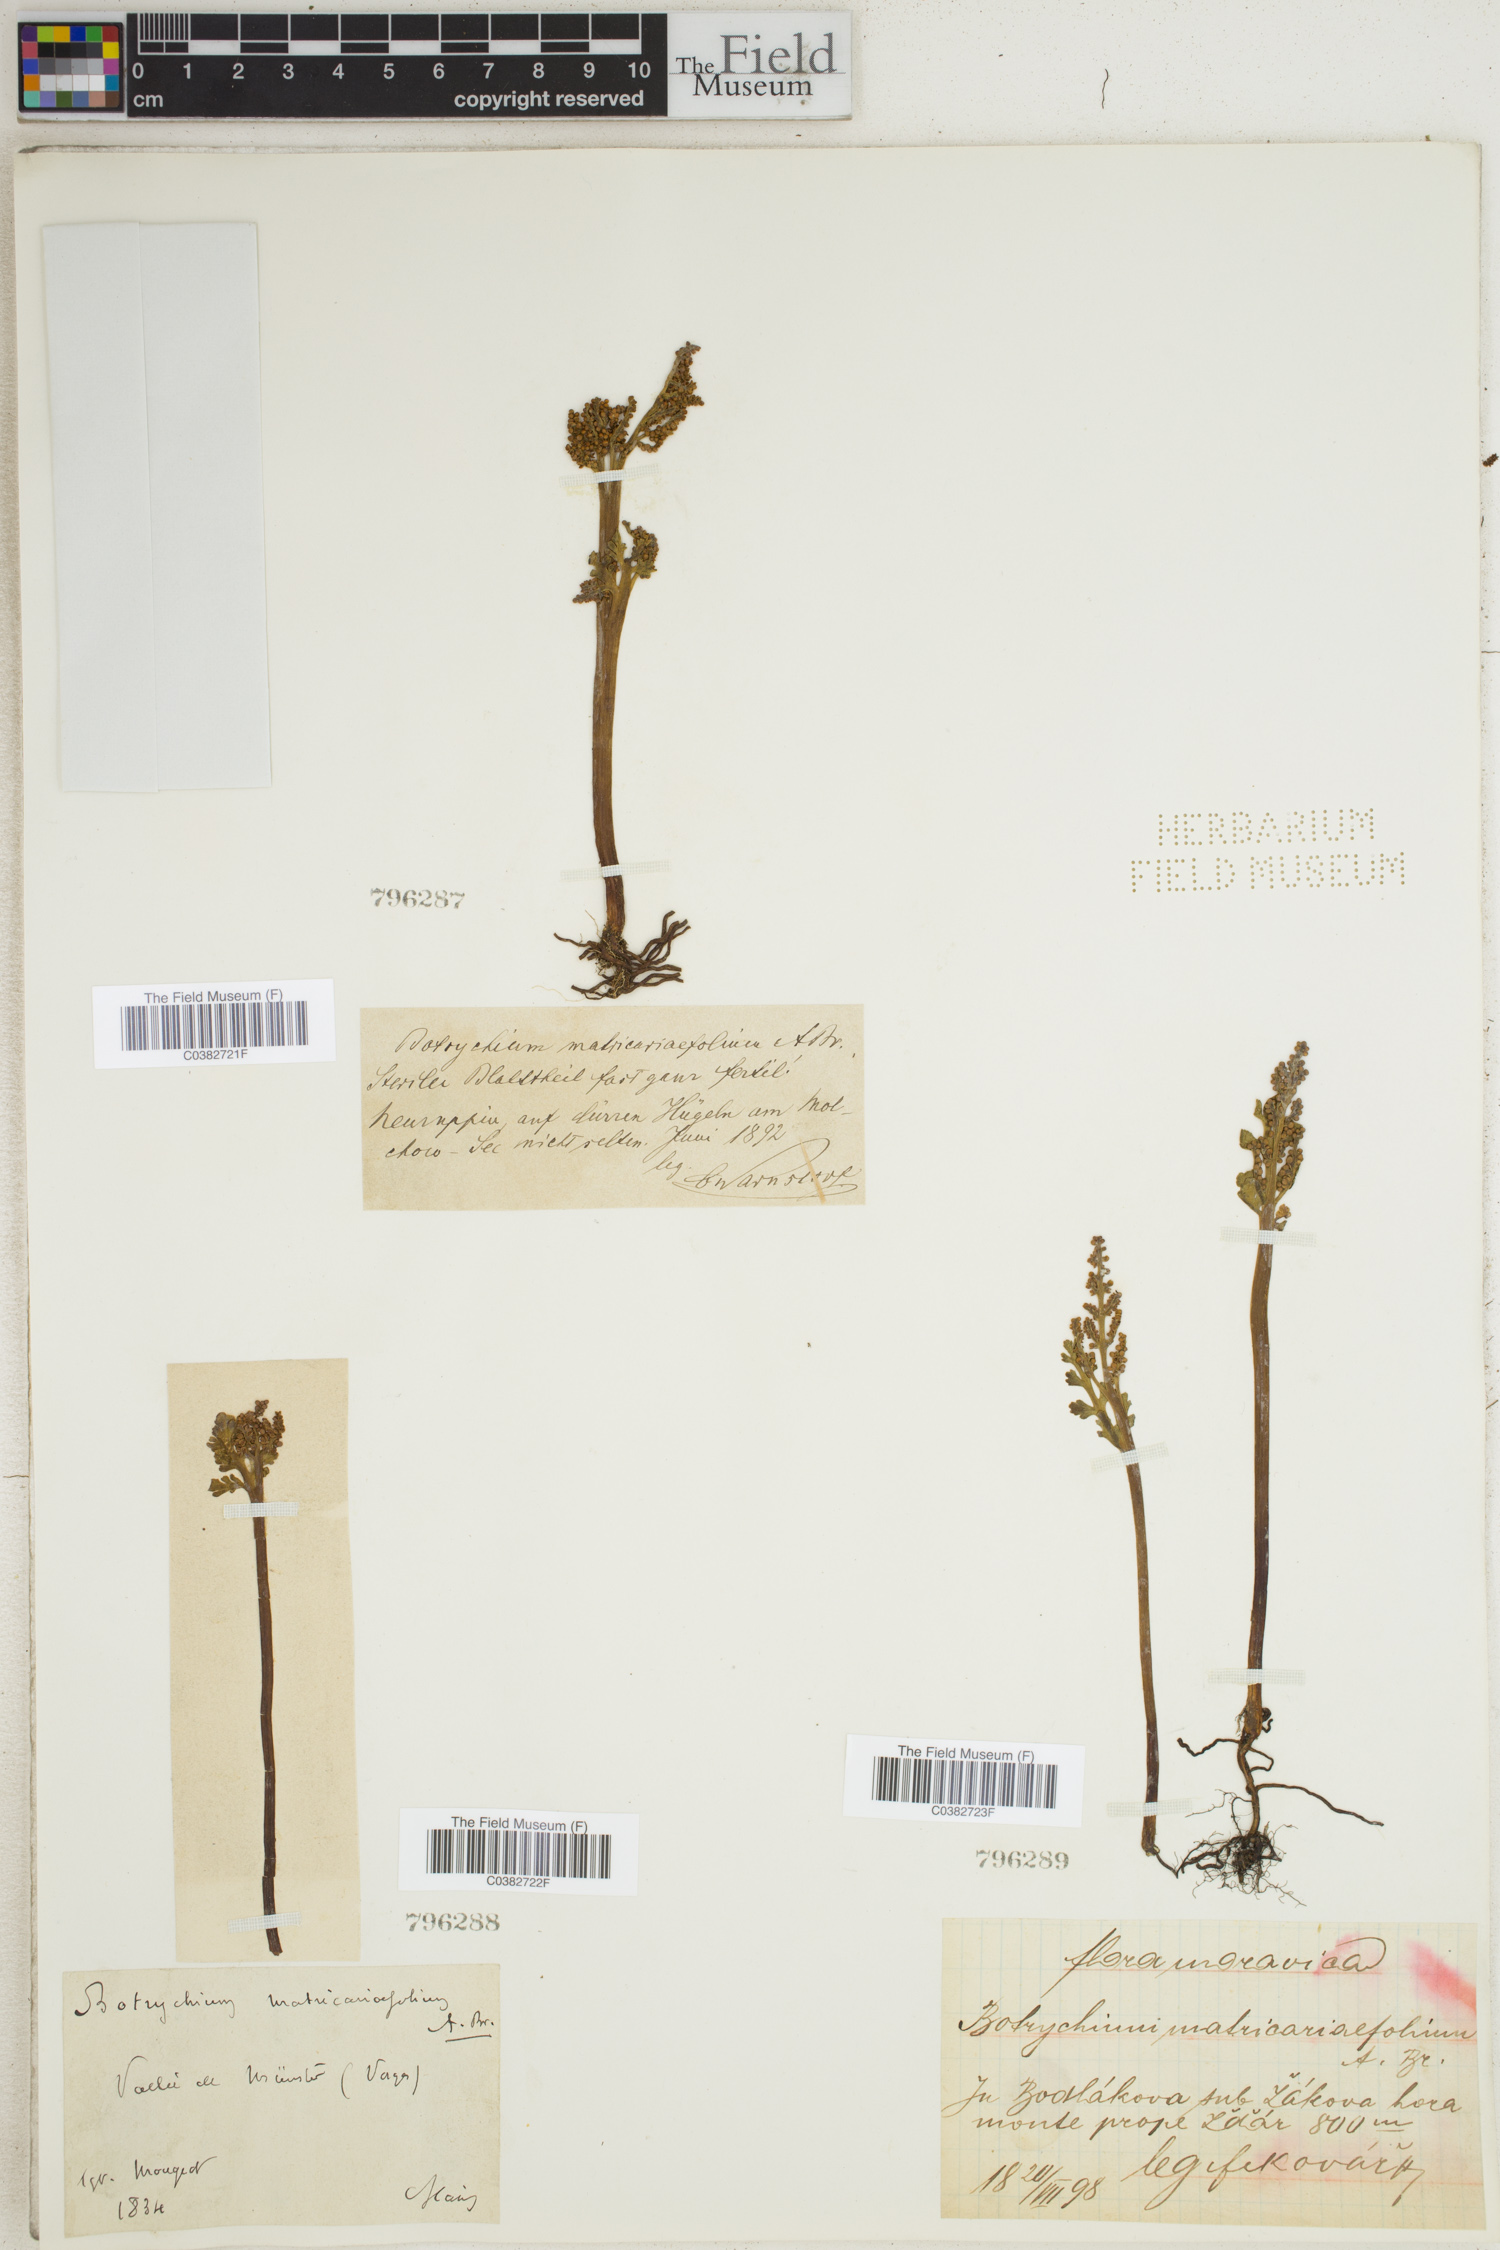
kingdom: Plantae
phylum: Tracheophyta
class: Polypodiopsida
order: Ophioglossales
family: Ophioglossaceae
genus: Botrychium
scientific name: Botrychium matricariifolium
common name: Branched moonwort
